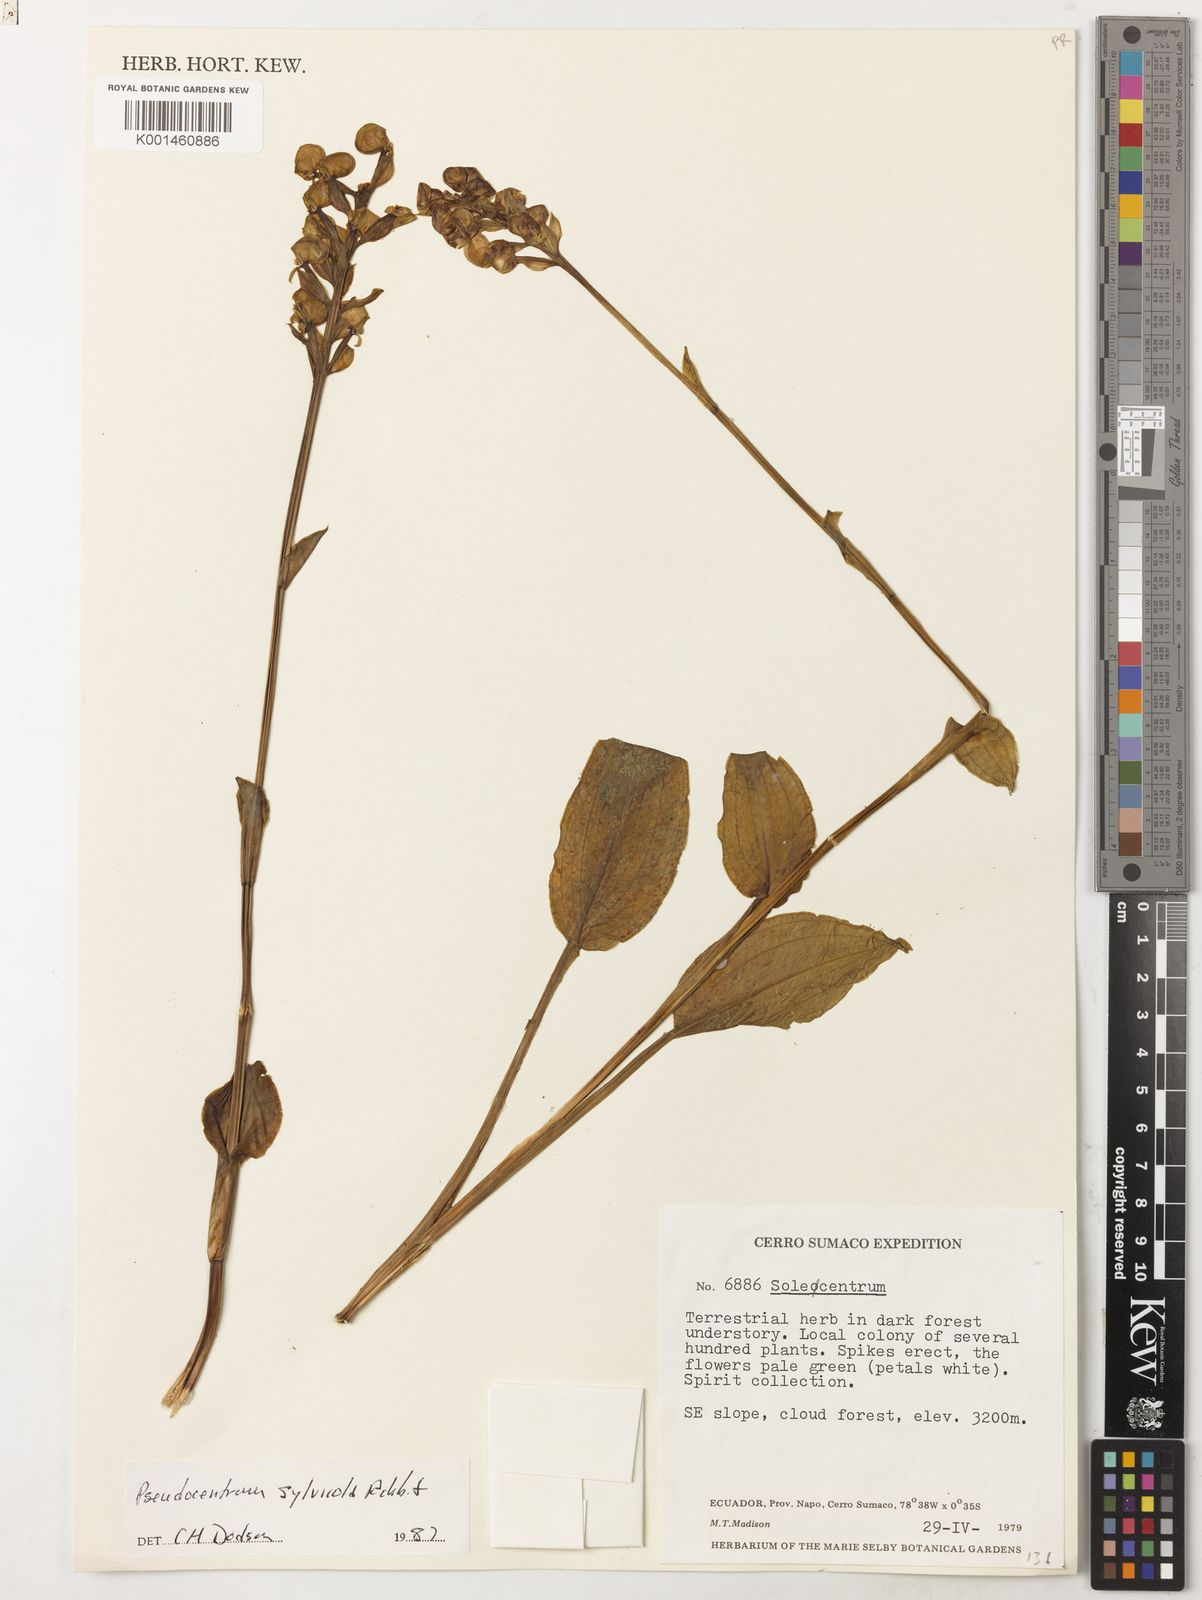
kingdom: Plantae
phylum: Tracheophyta
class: Liliopsida
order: Asparagales
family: Orchidaceae
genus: Pseudocentrum
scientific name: Pseudocentrum sylvicola
